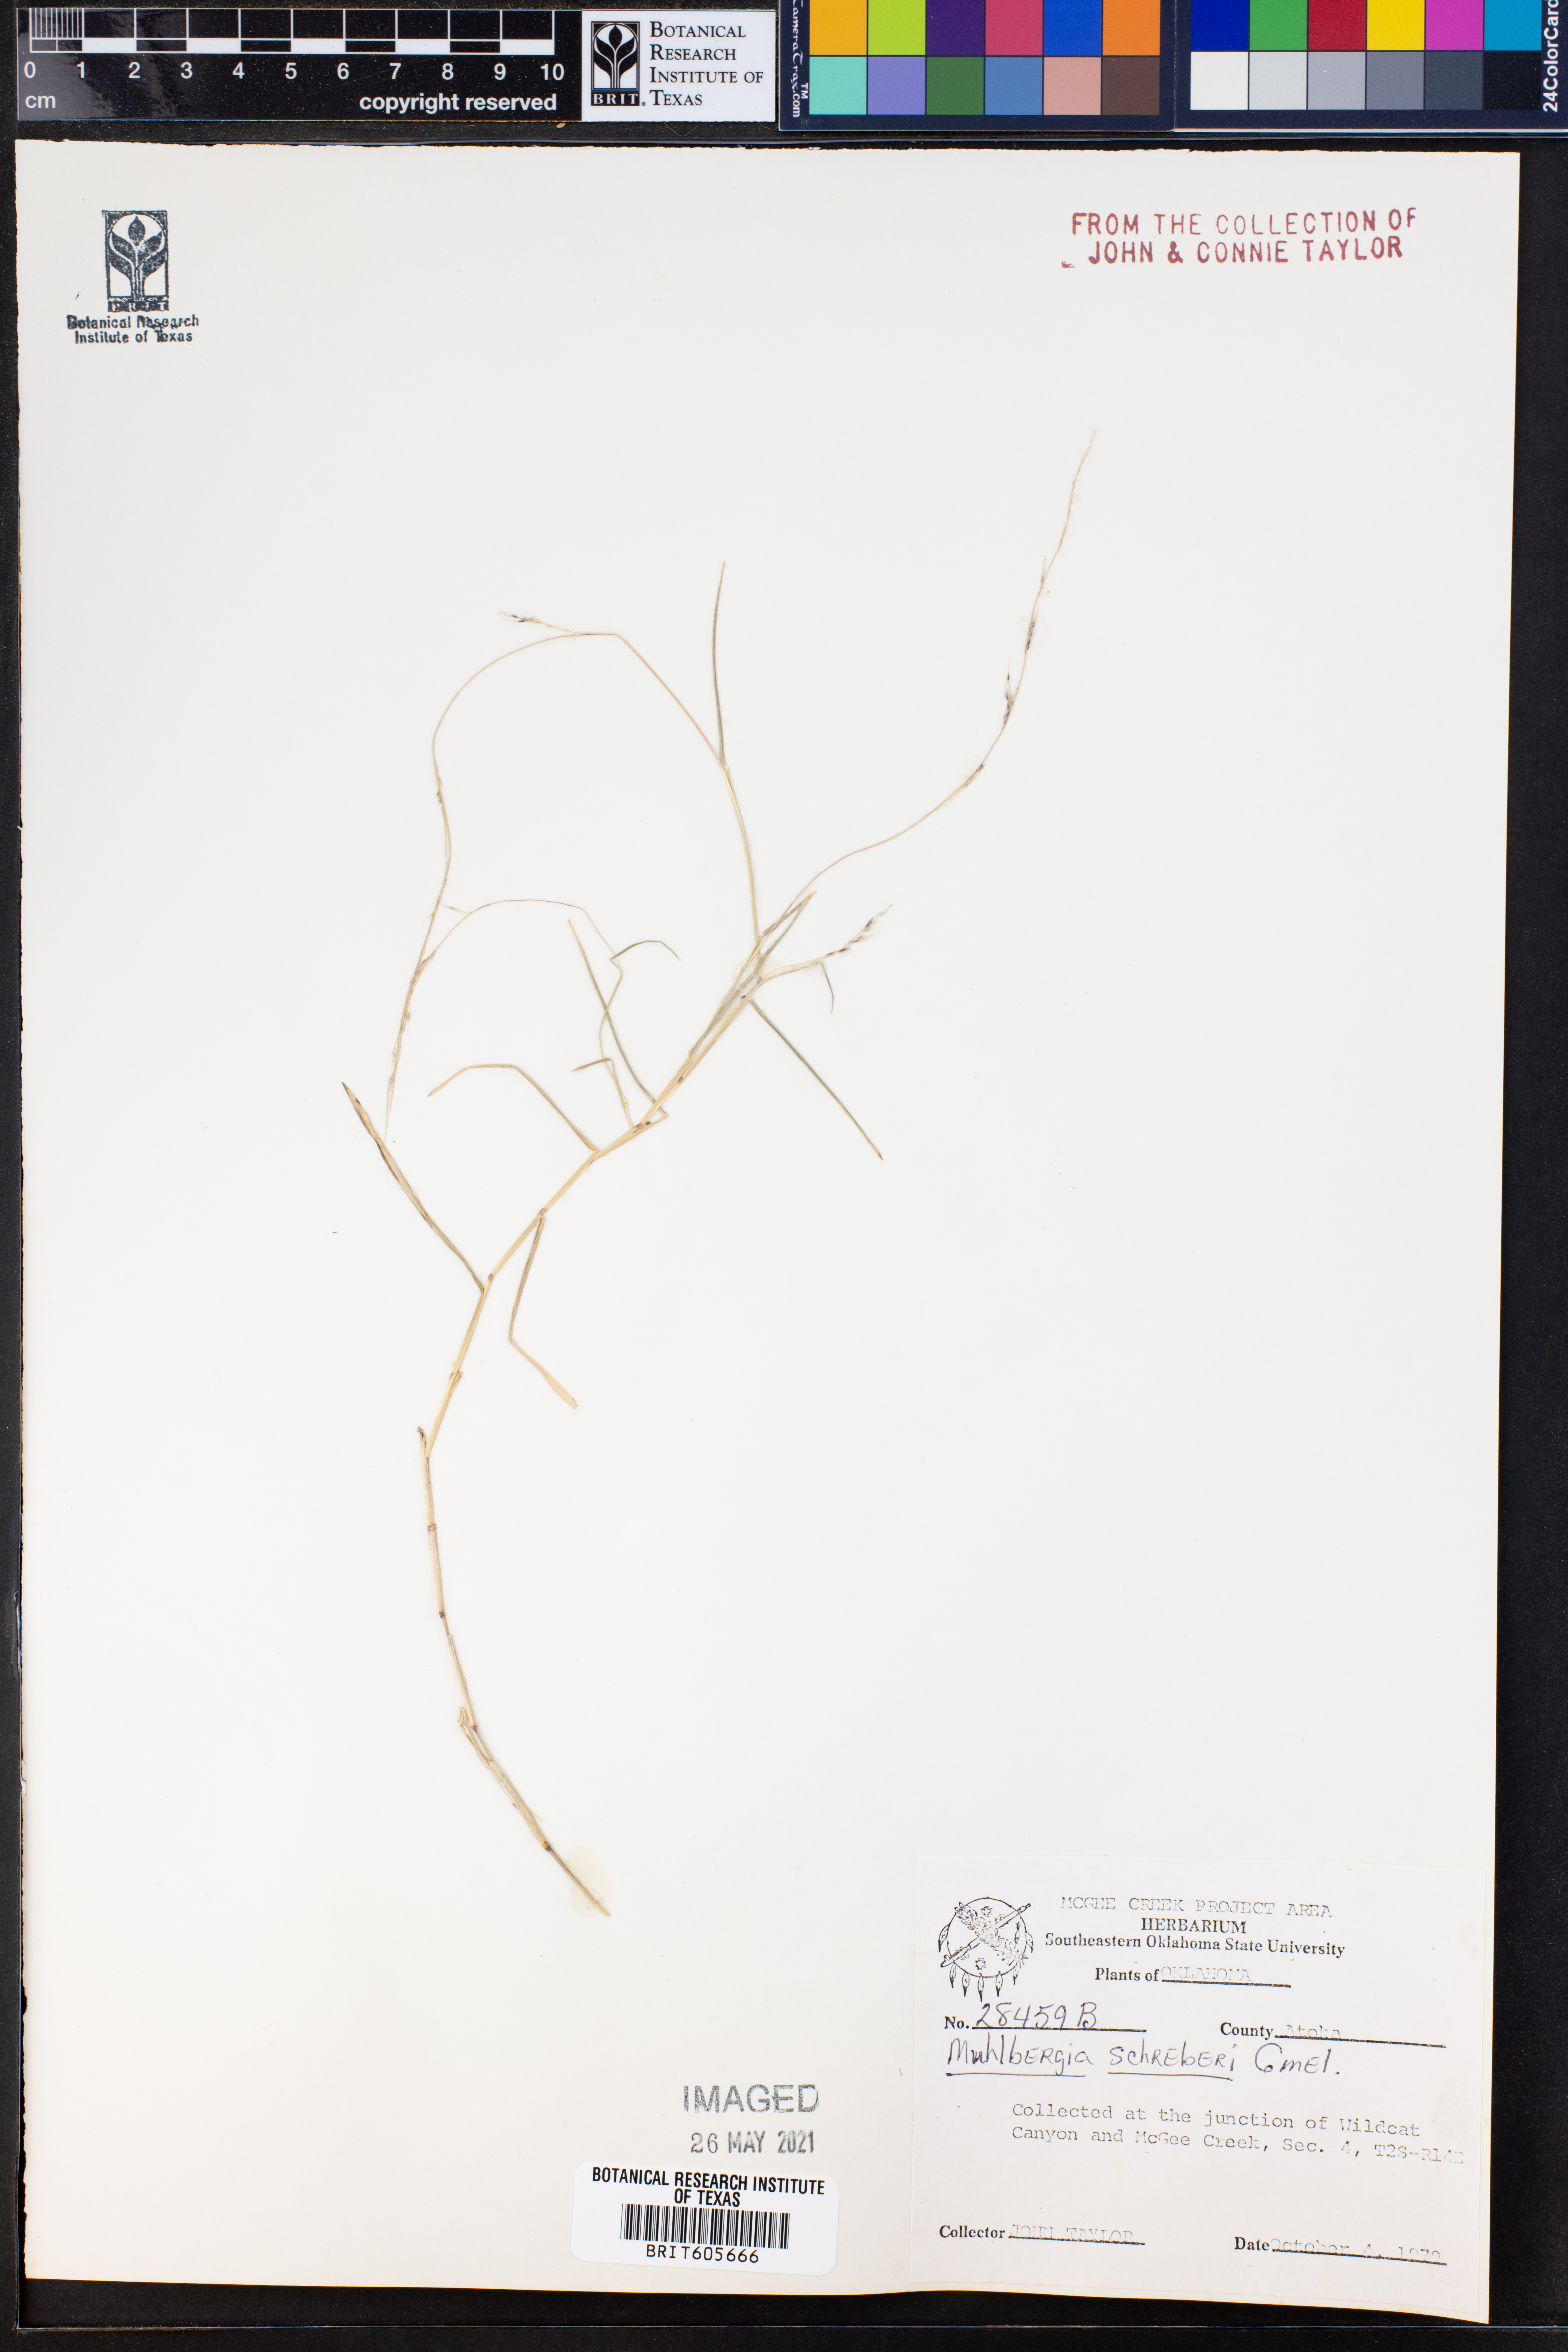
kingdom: Plantae
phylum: Tracheophyta
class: Liliopsida
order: Poales
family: Poaceae
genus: Muhlenbergia
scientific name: Muhlenbergia schreberi
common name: Nimblewill
